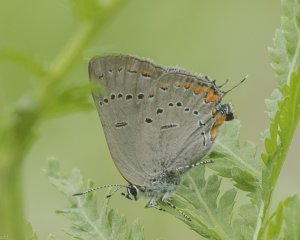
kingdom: Animalia
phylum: Arthropoda
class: Insecta
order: Lepidoptera
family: Lycaenidae
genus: Strymon
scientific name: Strymon acadica
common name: Acadian Hairstreak
